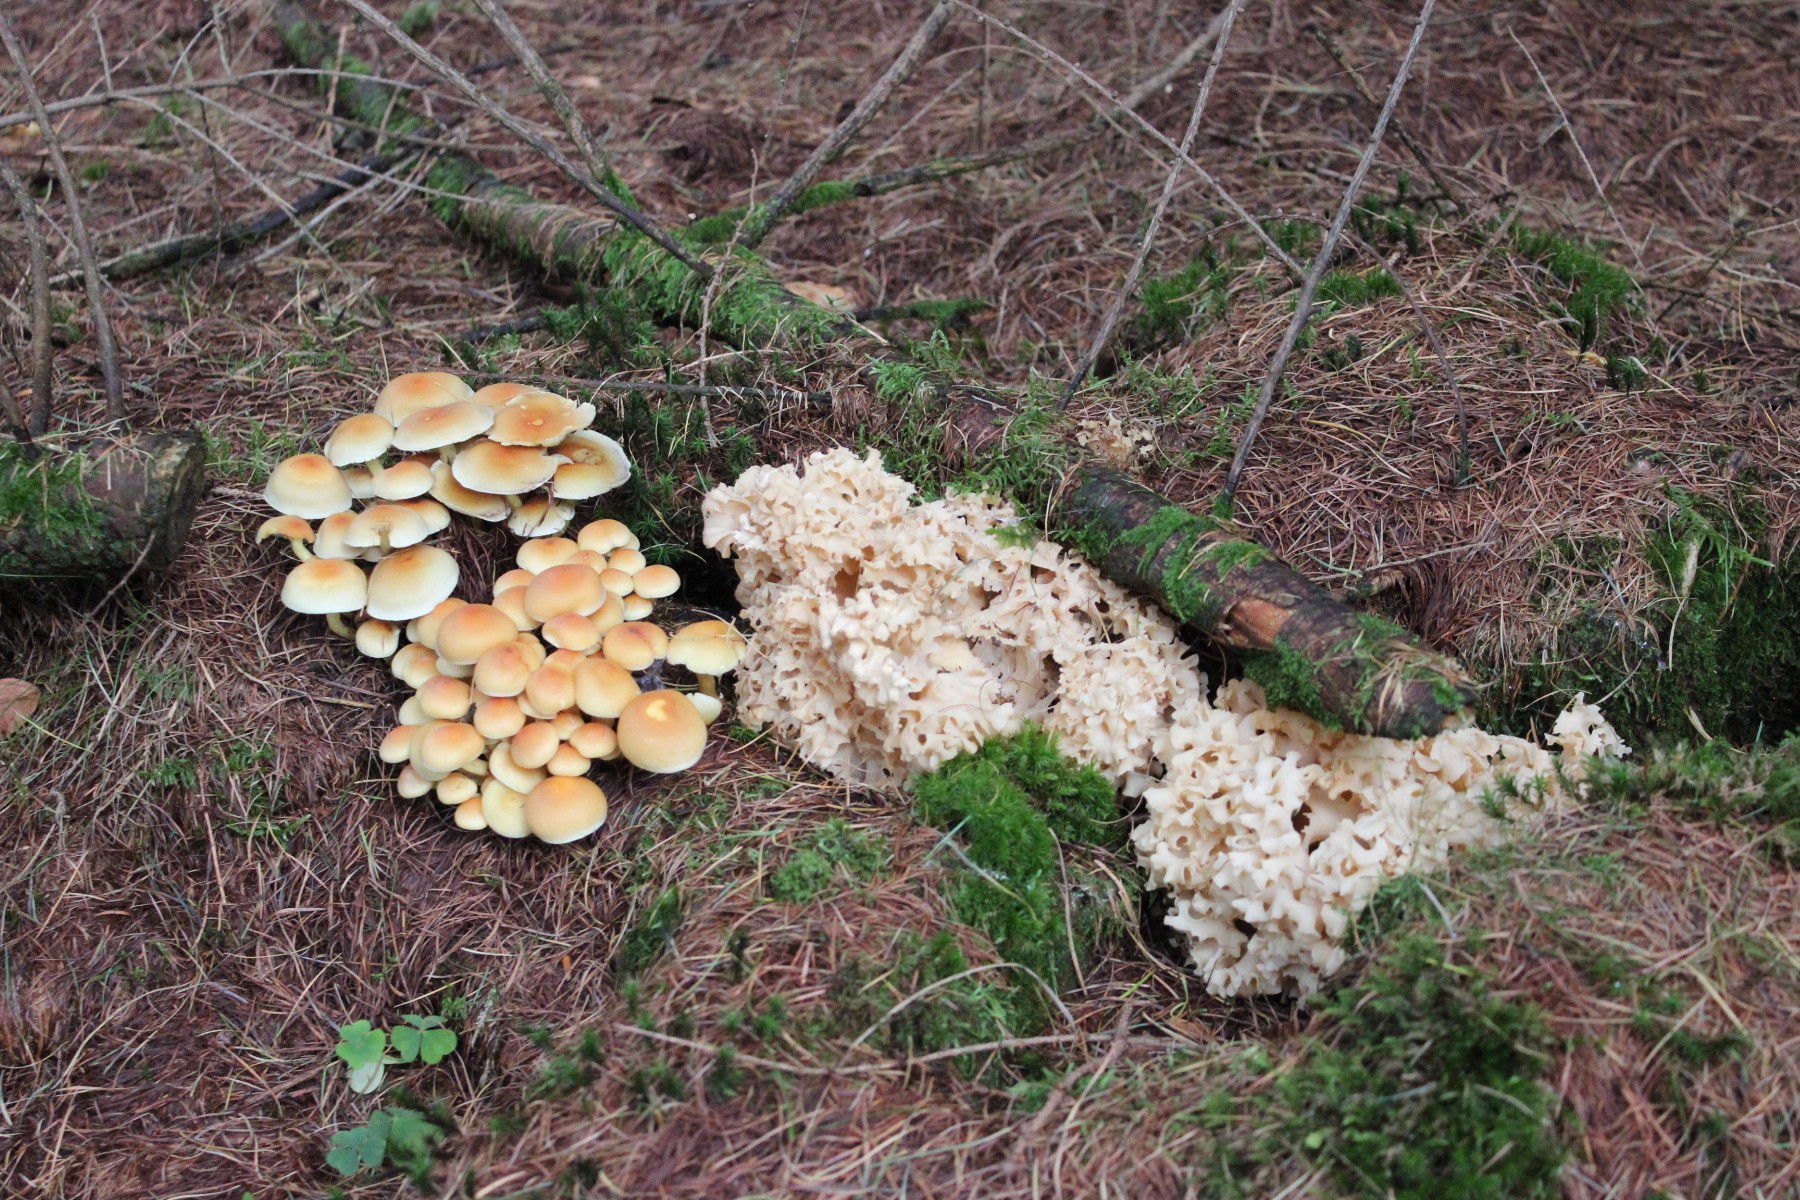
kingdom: Fungi
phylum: Basidiomycota
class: Agaricomycetes
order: Polyporales
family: Sparassidaceae
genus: Sparassis
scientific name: Sparassis crispa
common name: kruset blomkålssvamp
